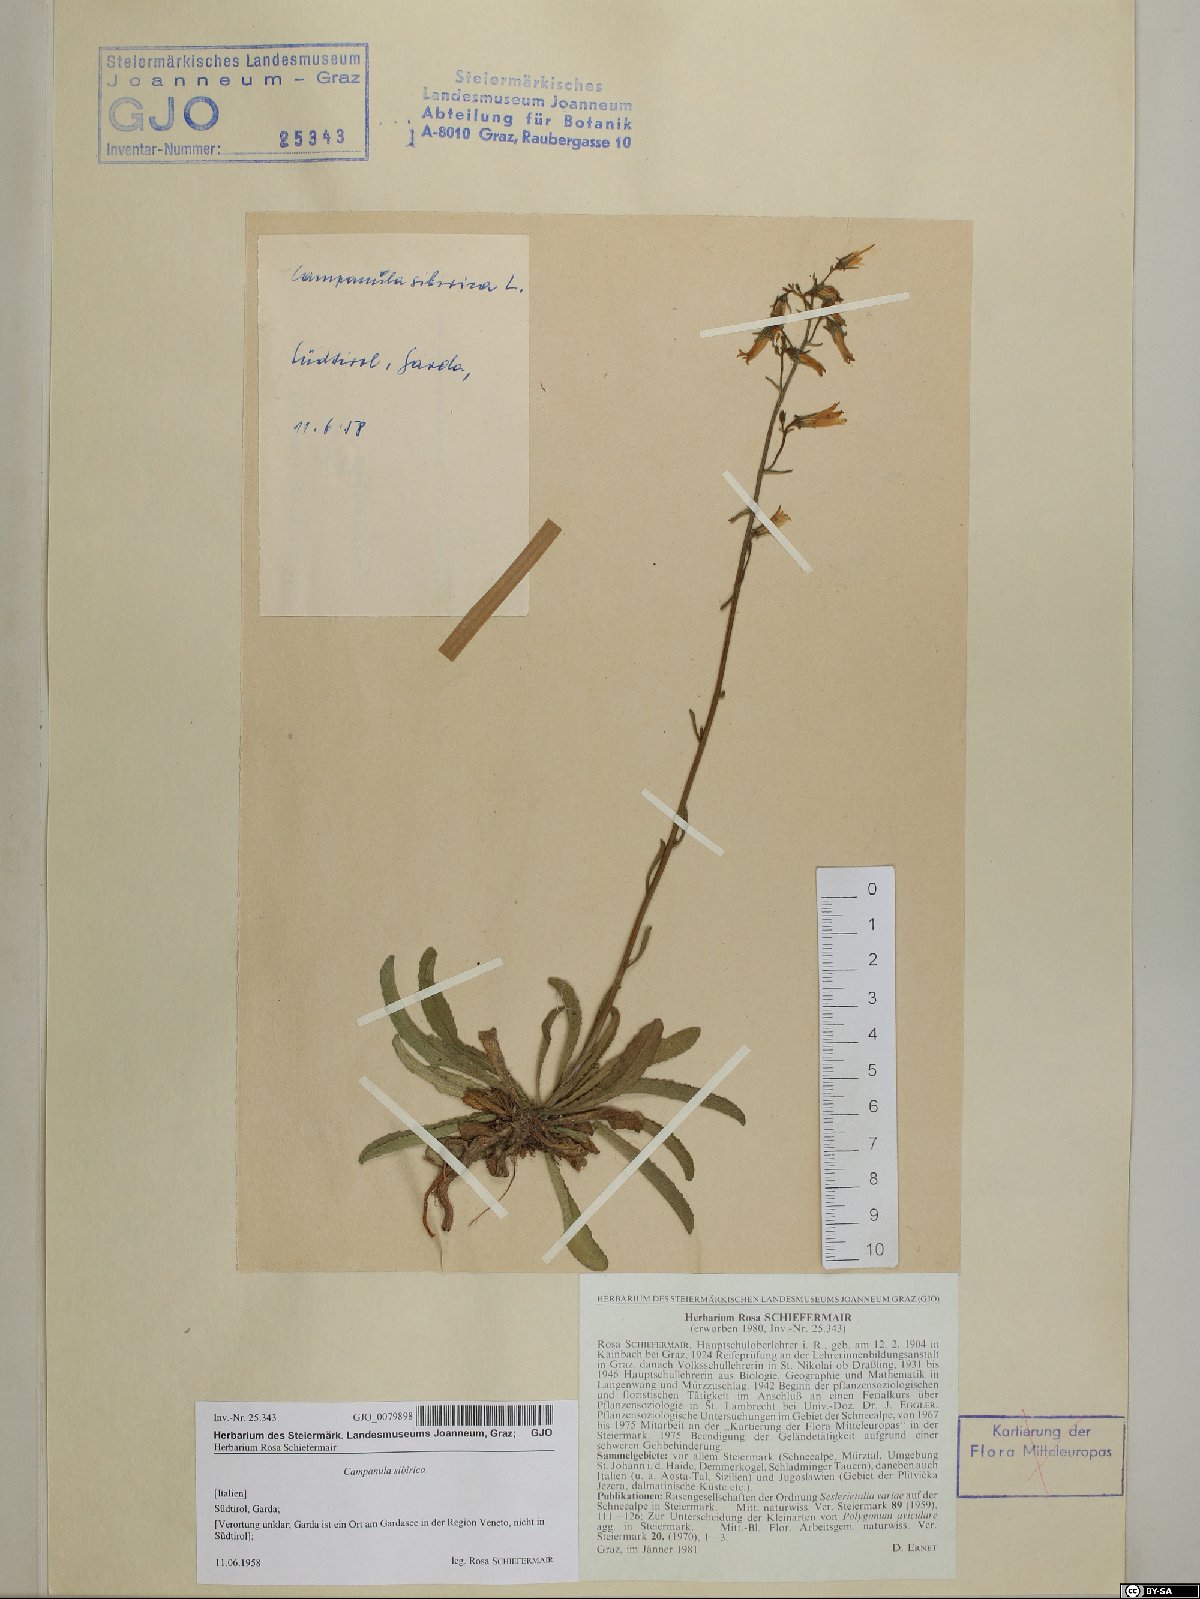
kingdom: Plantae
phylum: Tracheophyta
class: Magnoliopsida
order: Asterales
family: Campanulaceae
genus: Campanula
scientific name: Campanula sibirica
